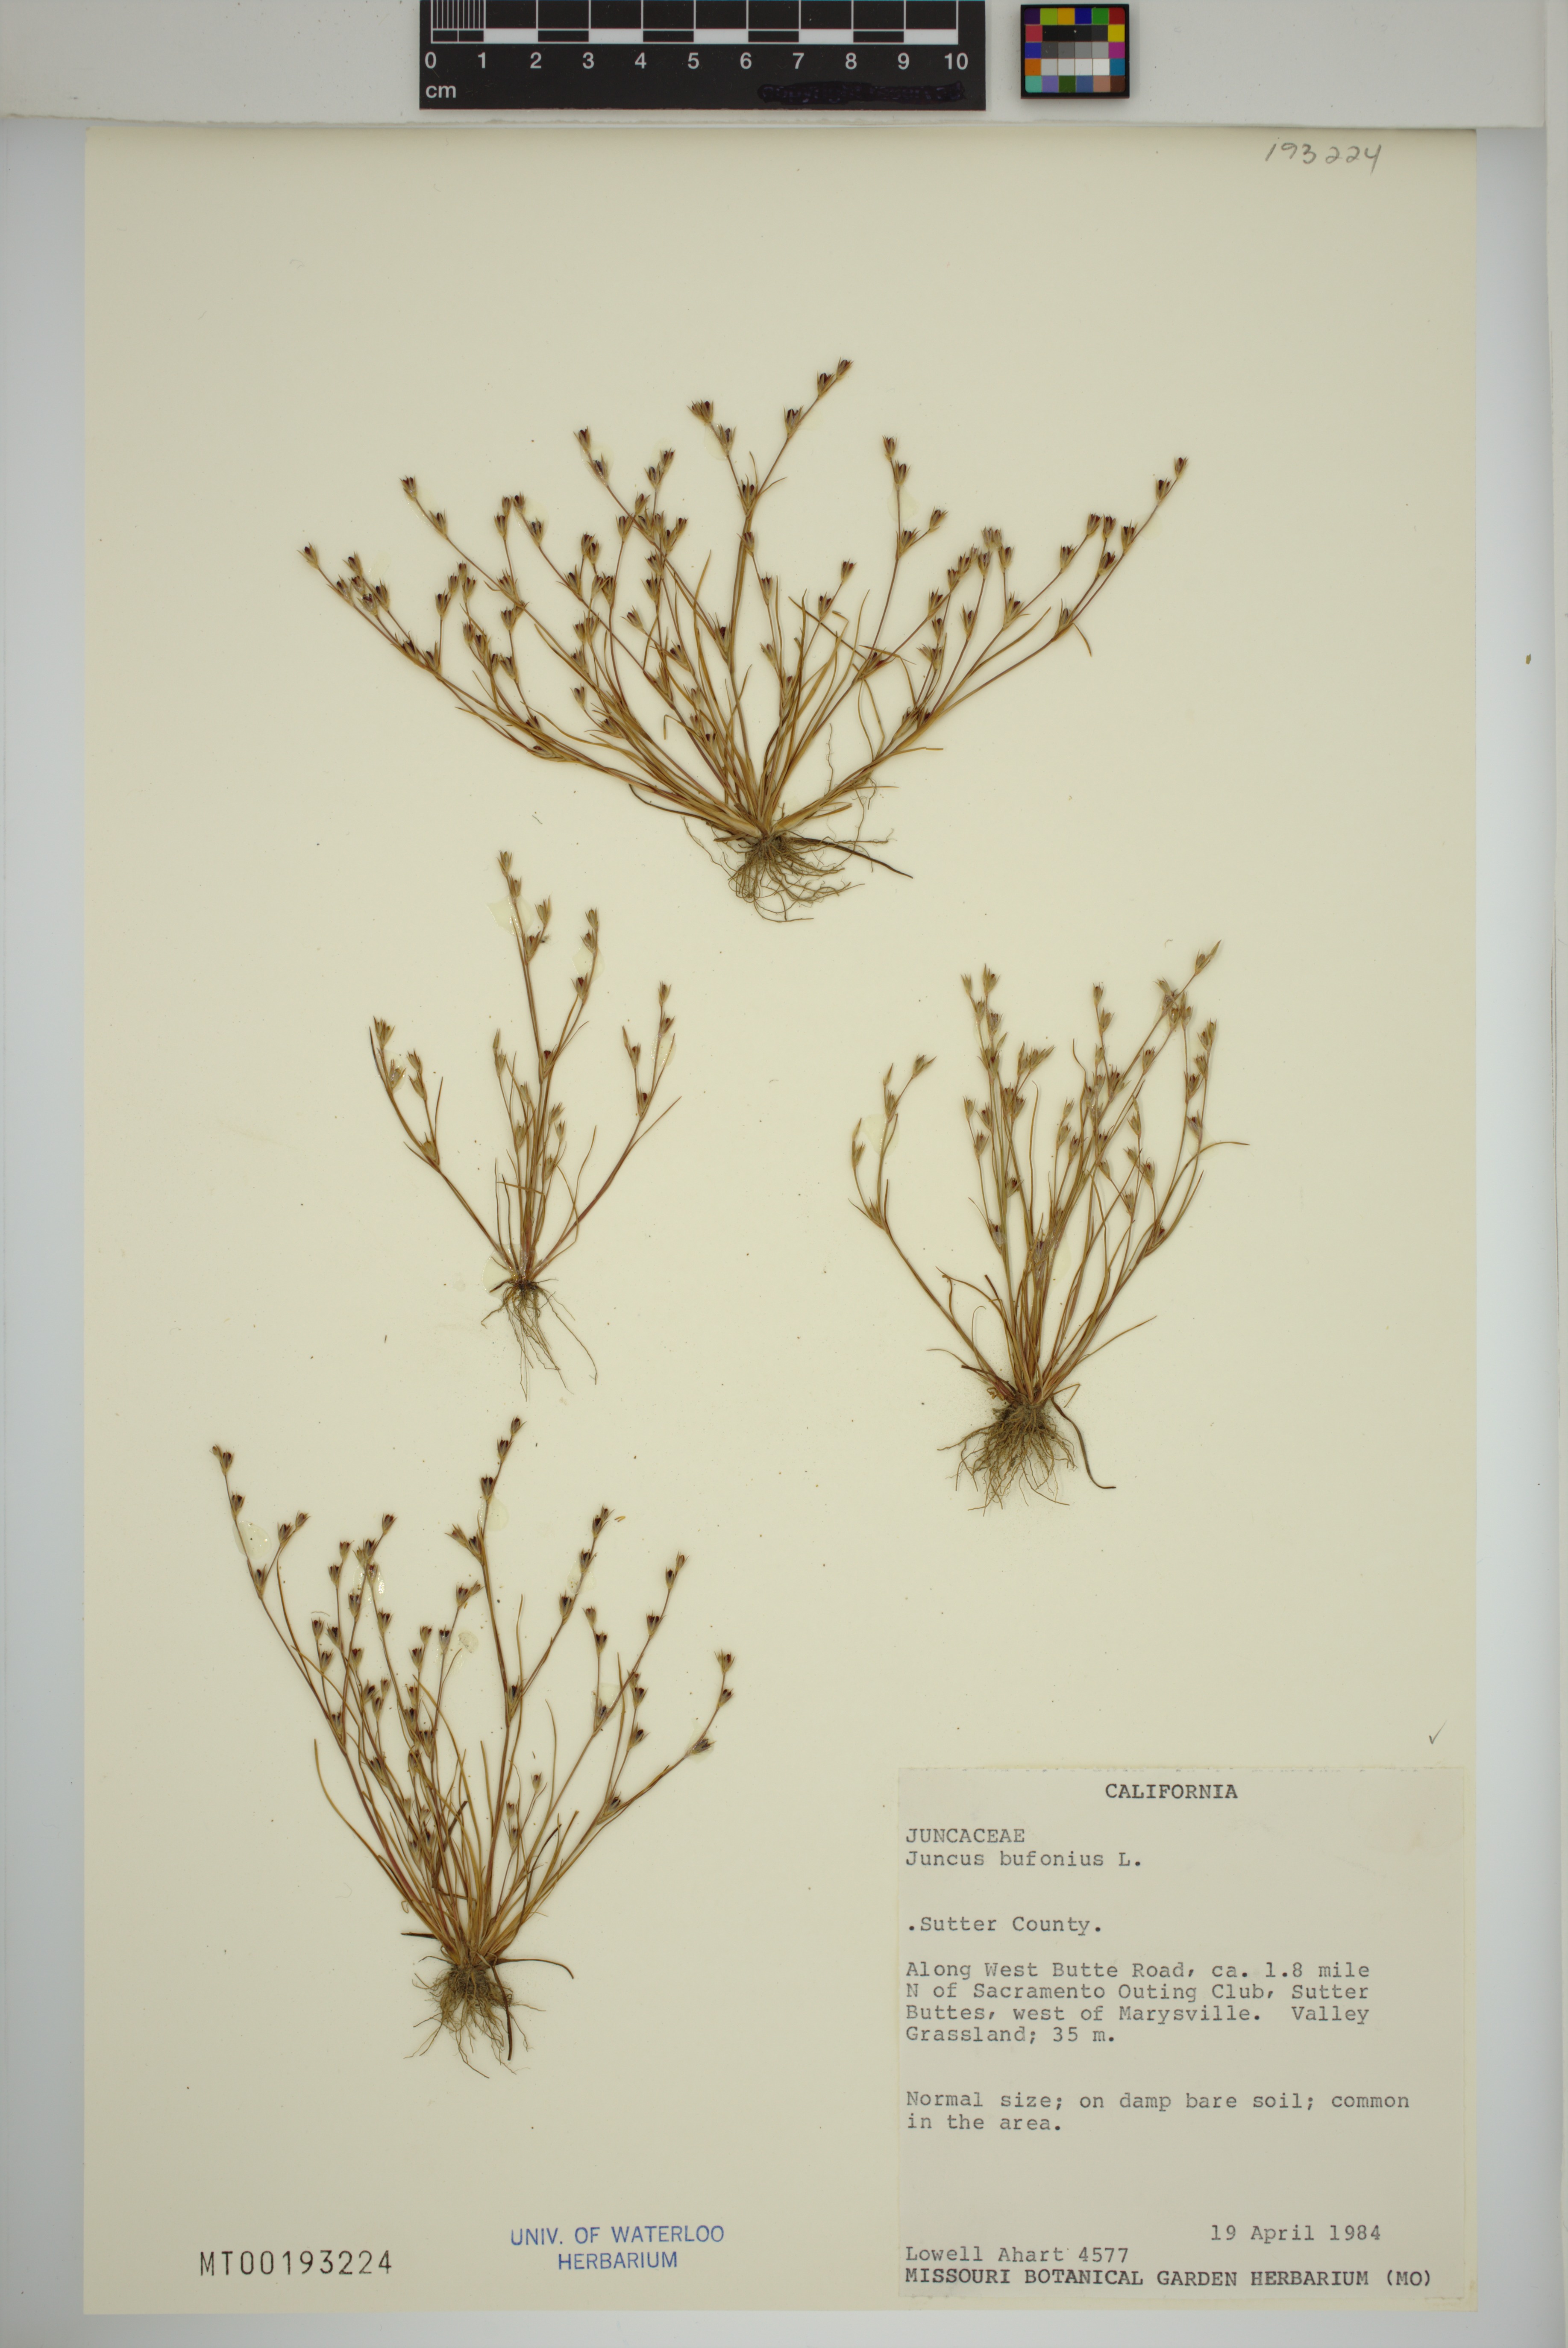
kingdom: Plantae
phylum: Tracheophyta
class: Liliopsida
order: Poales
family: Juncaceae
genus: Juncus
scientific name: Juncus bufonius
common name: Toad rush
